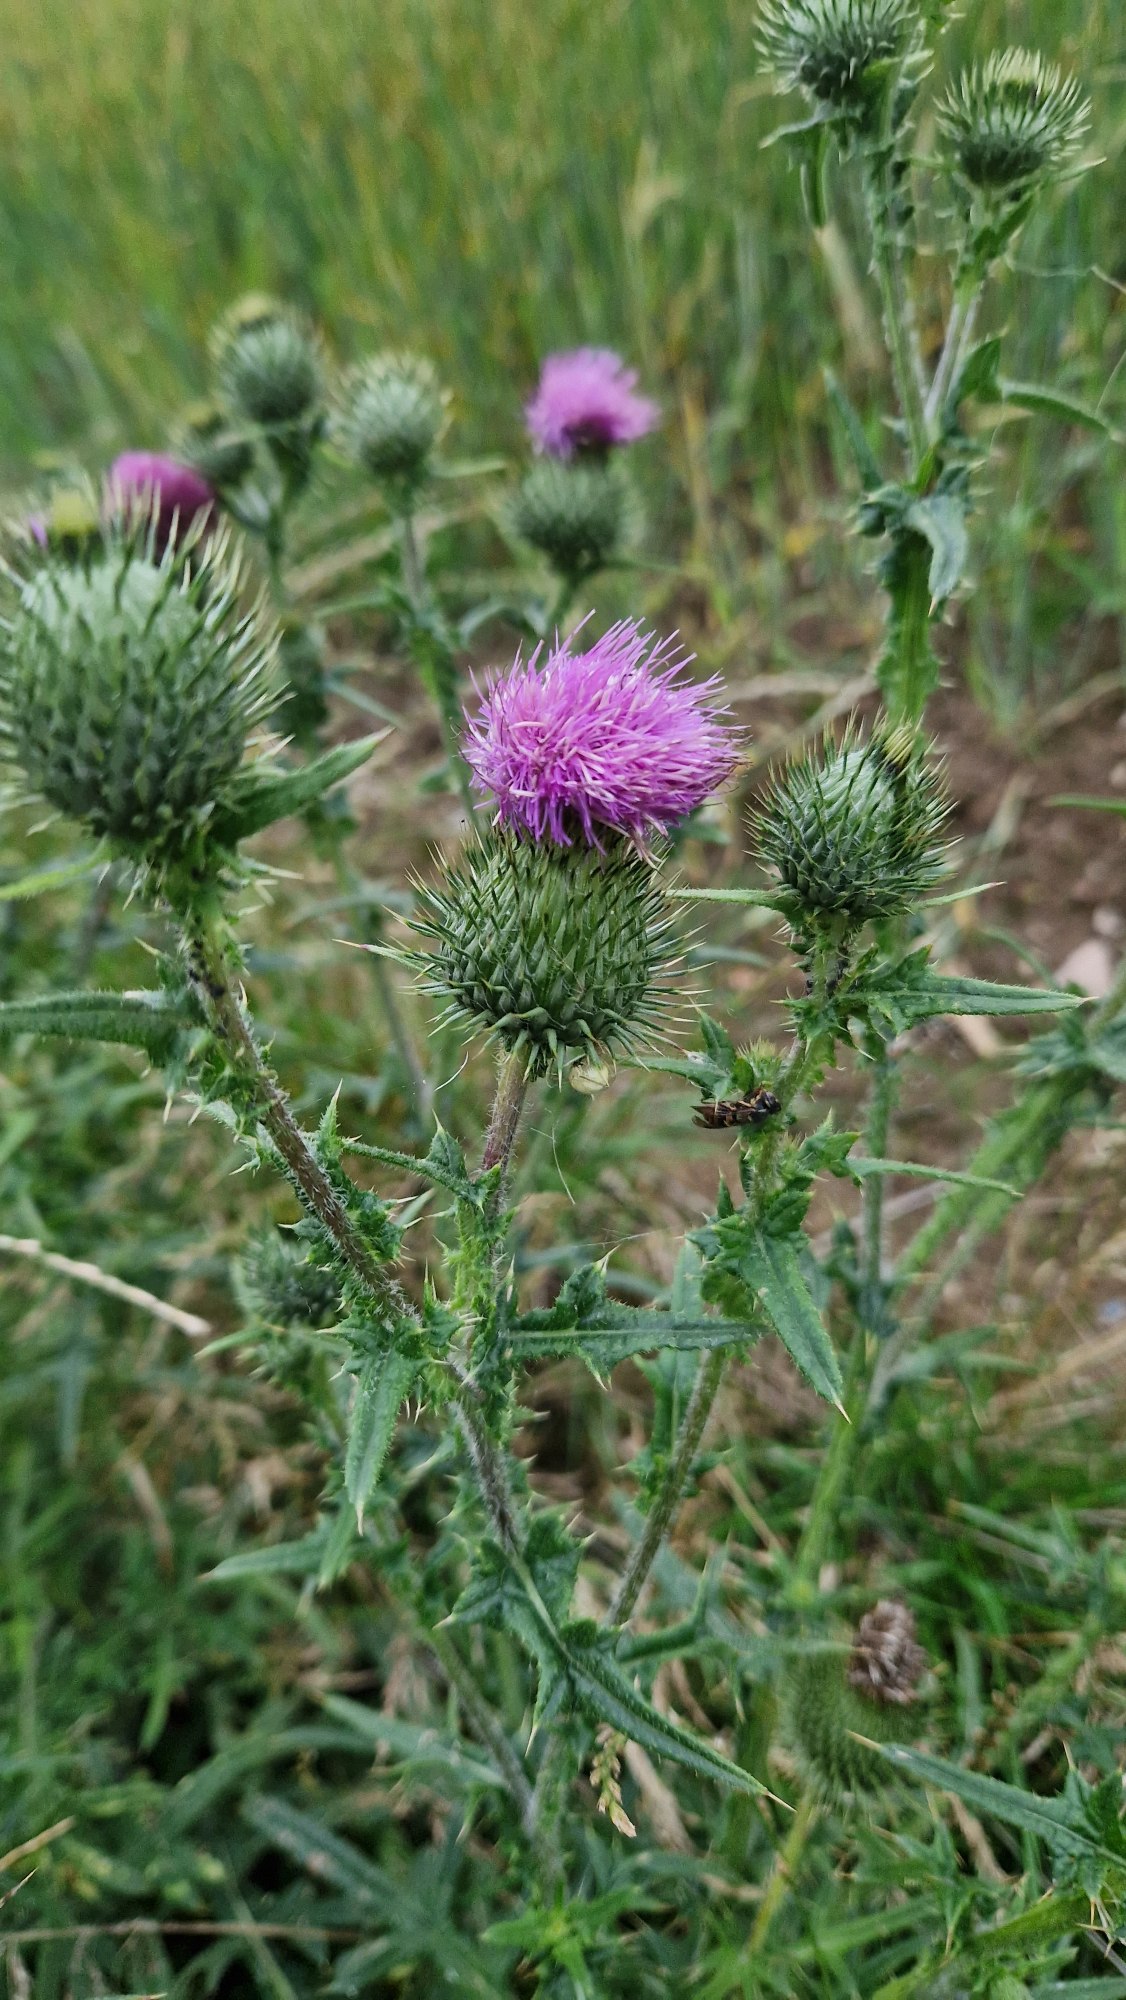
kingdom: Plantae
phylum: Tracheophyta
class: Magnoliopsida
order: Asterales
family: Asteraceae
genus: Cirsium
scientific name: Cirsium vulgare
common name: Horse-tidsel
